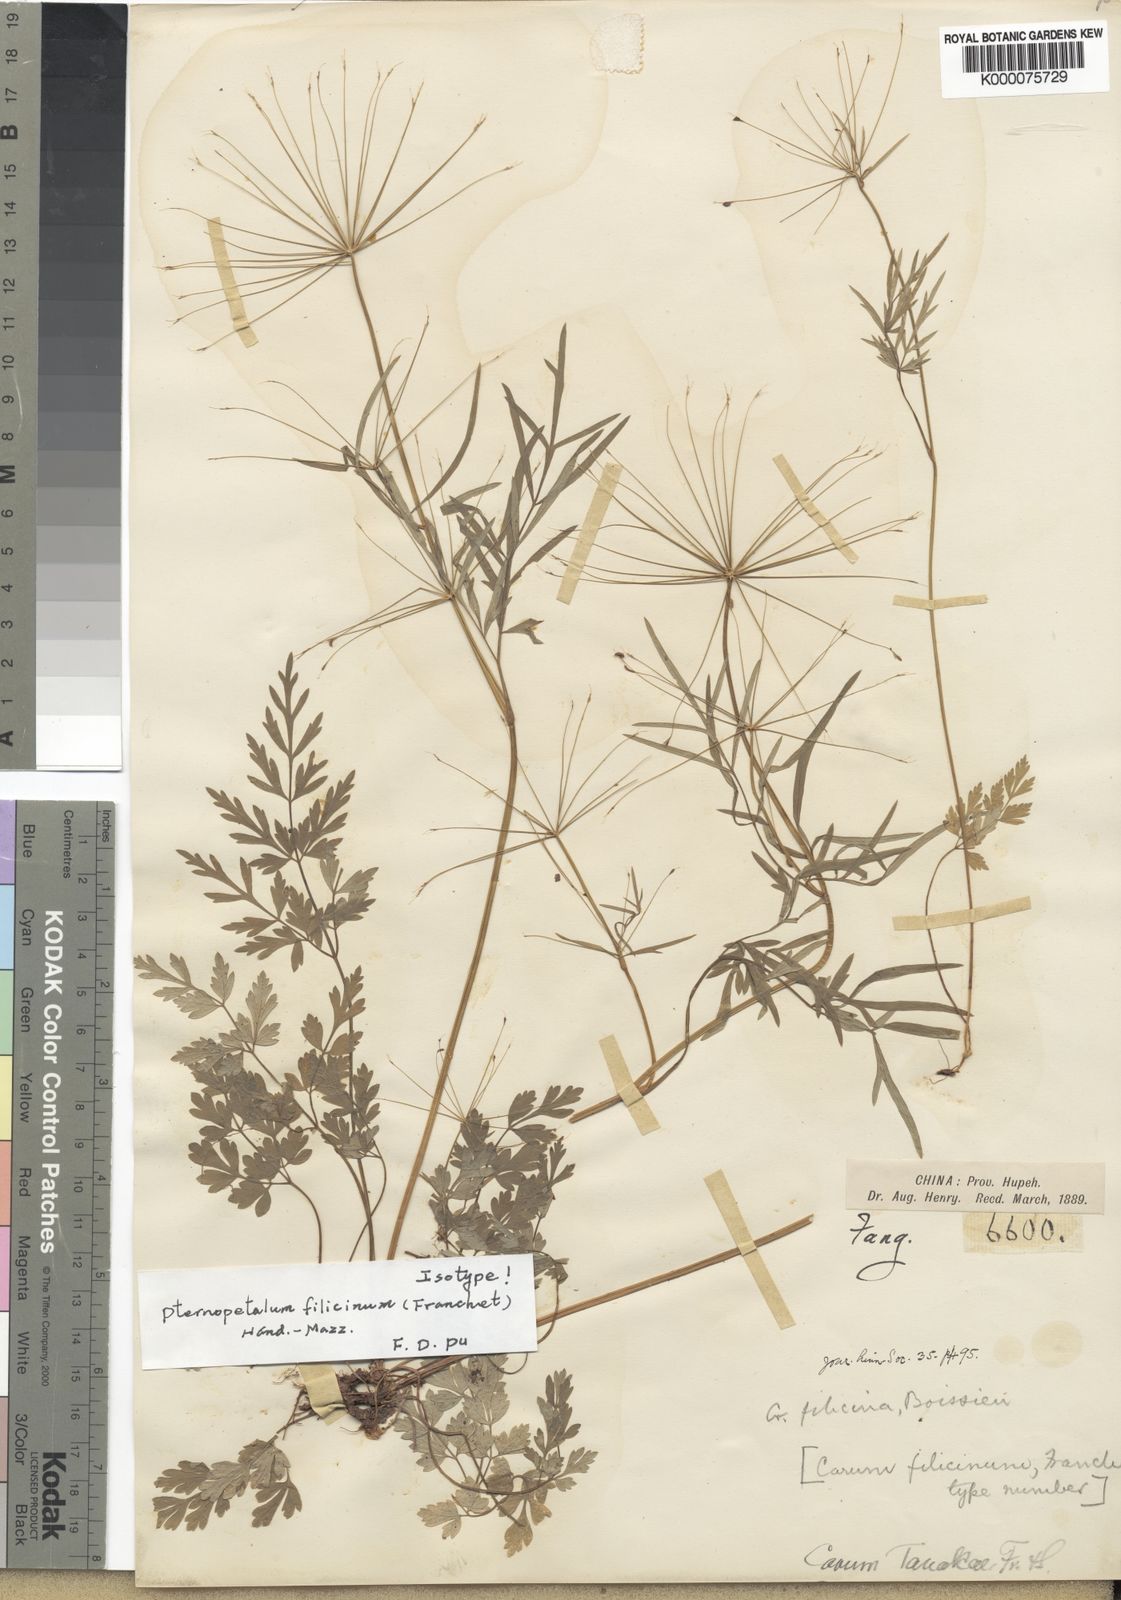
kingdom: Plantae
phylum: Tracheophyta
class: Magnoliopsida
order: Apiales
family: Apiaceae
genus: Pternopetalum
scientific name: Pternopetalum tanakae
